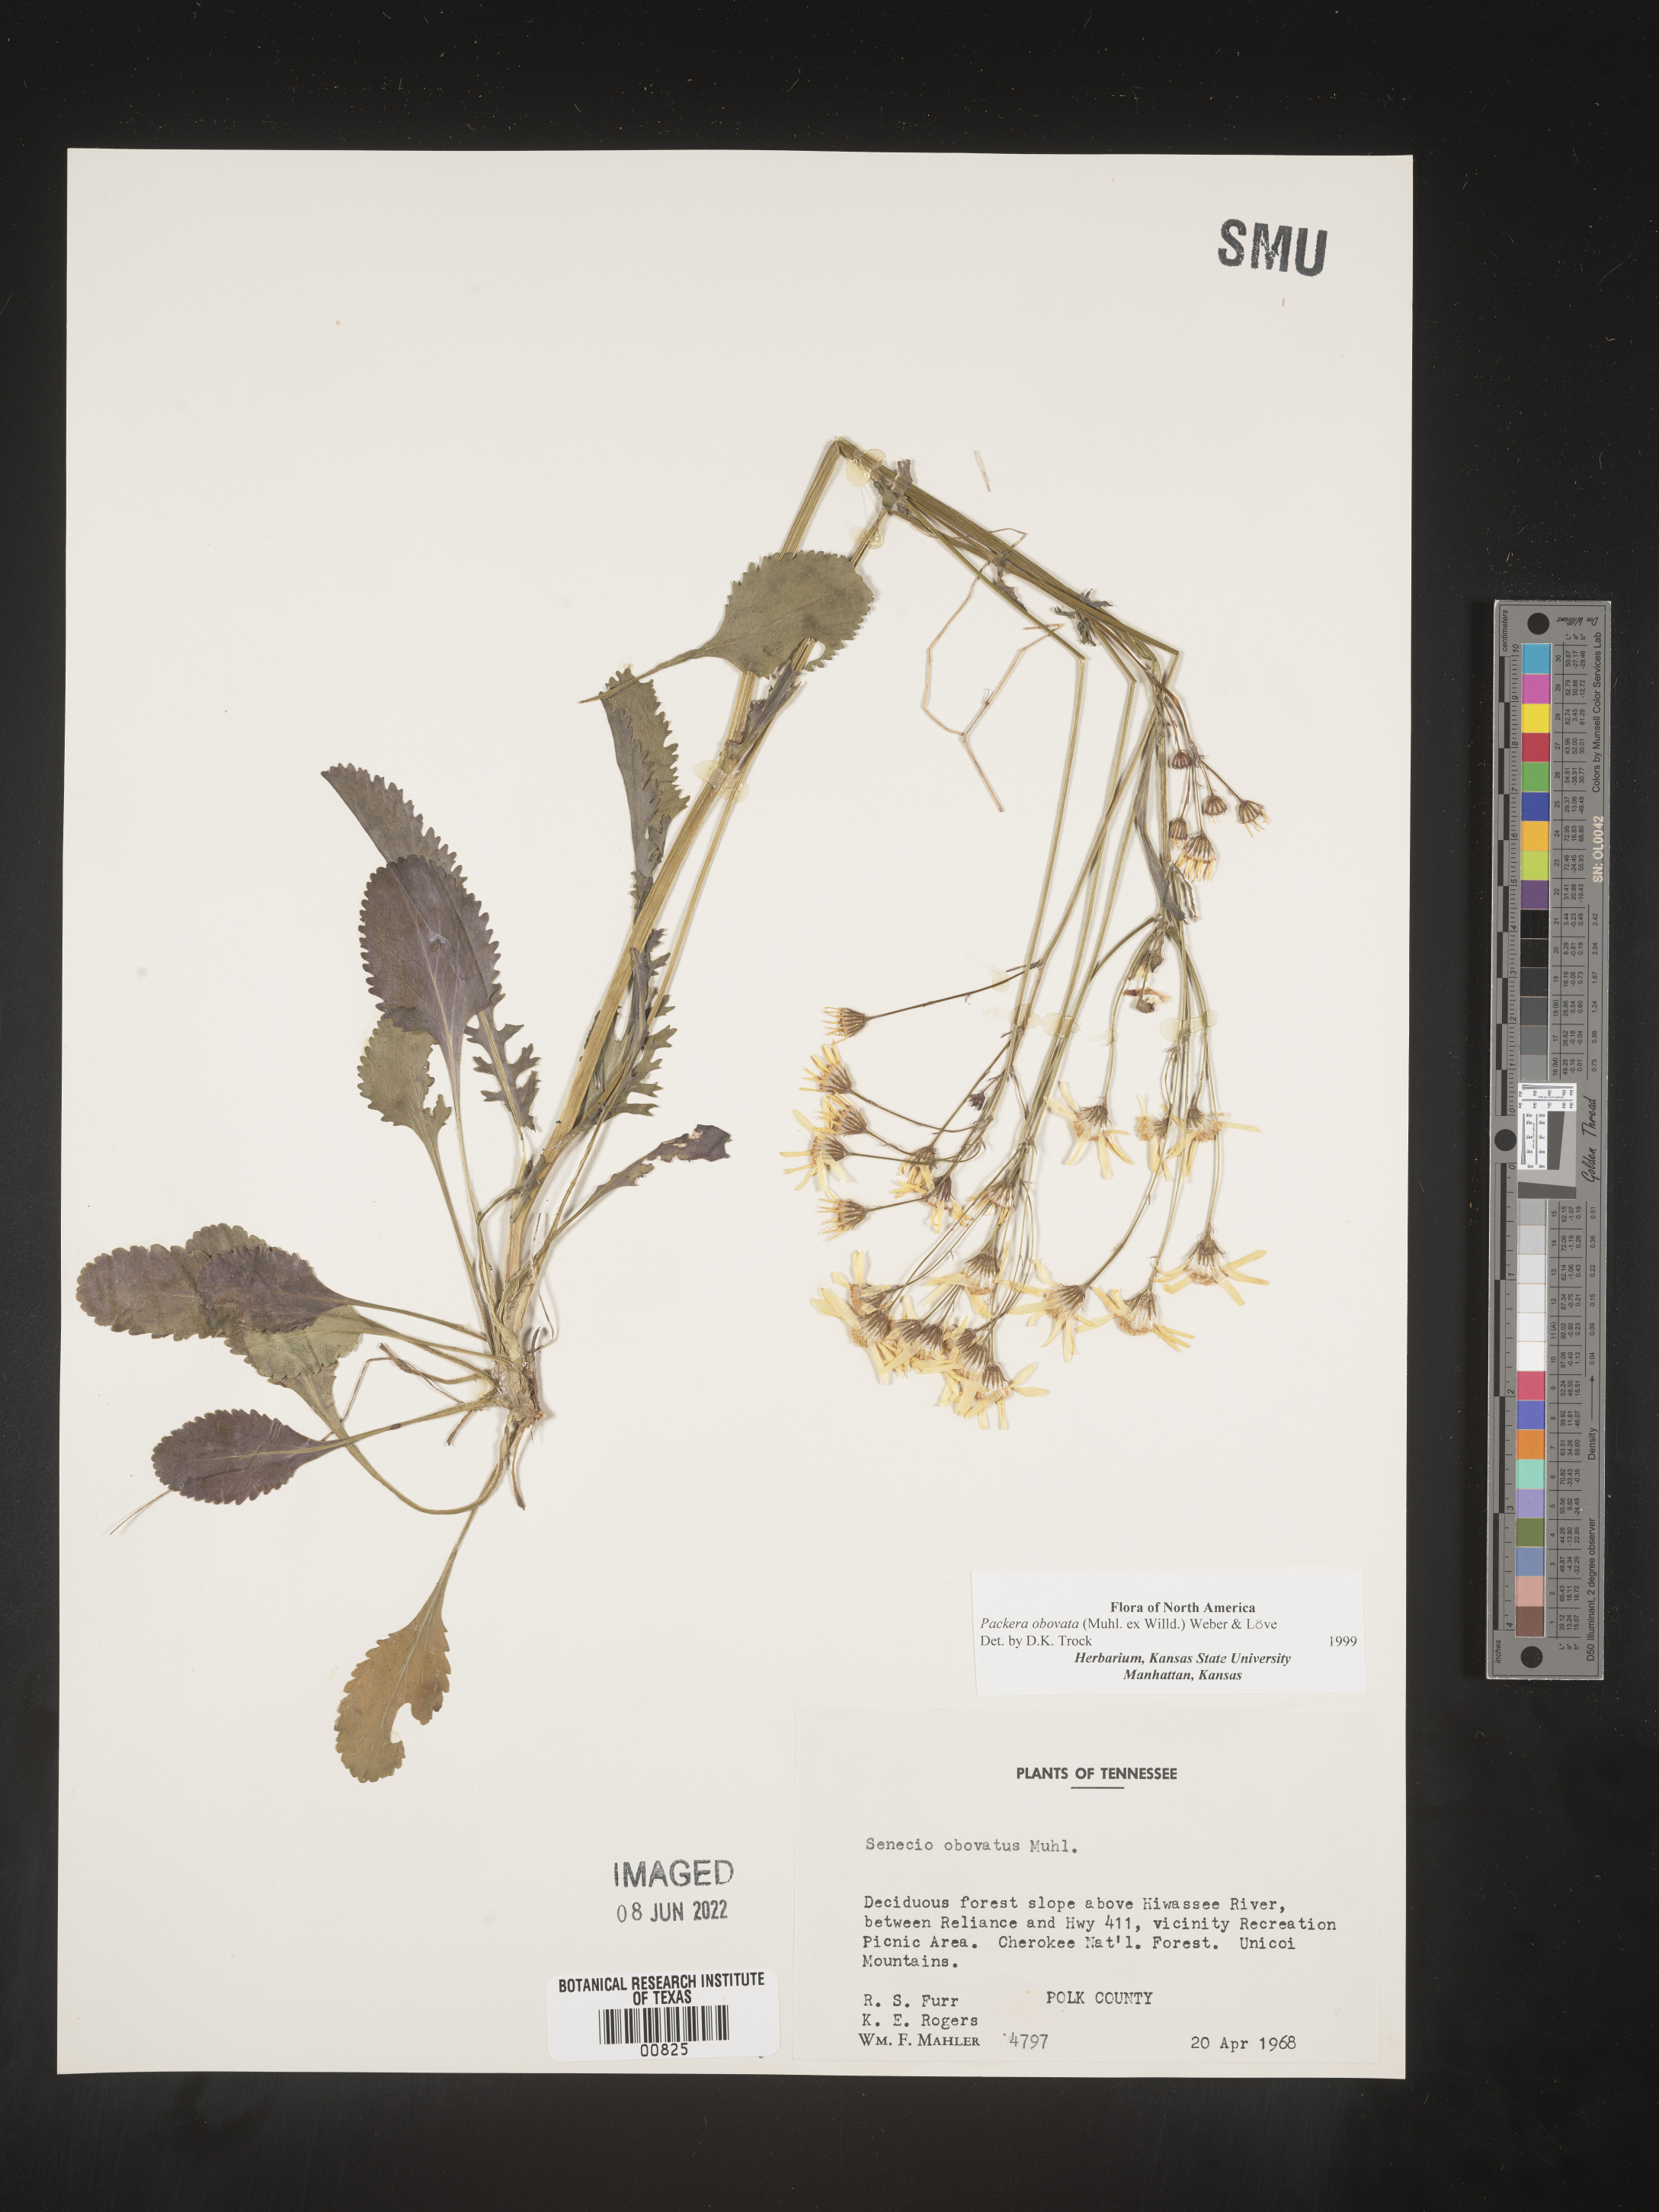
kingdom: Plantae
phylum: Tracheophyta
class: Magnoliopsida
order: Asterales
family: Asteraceae
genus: Packera
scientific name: Packera obovata
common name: Round-leaf ragwort
